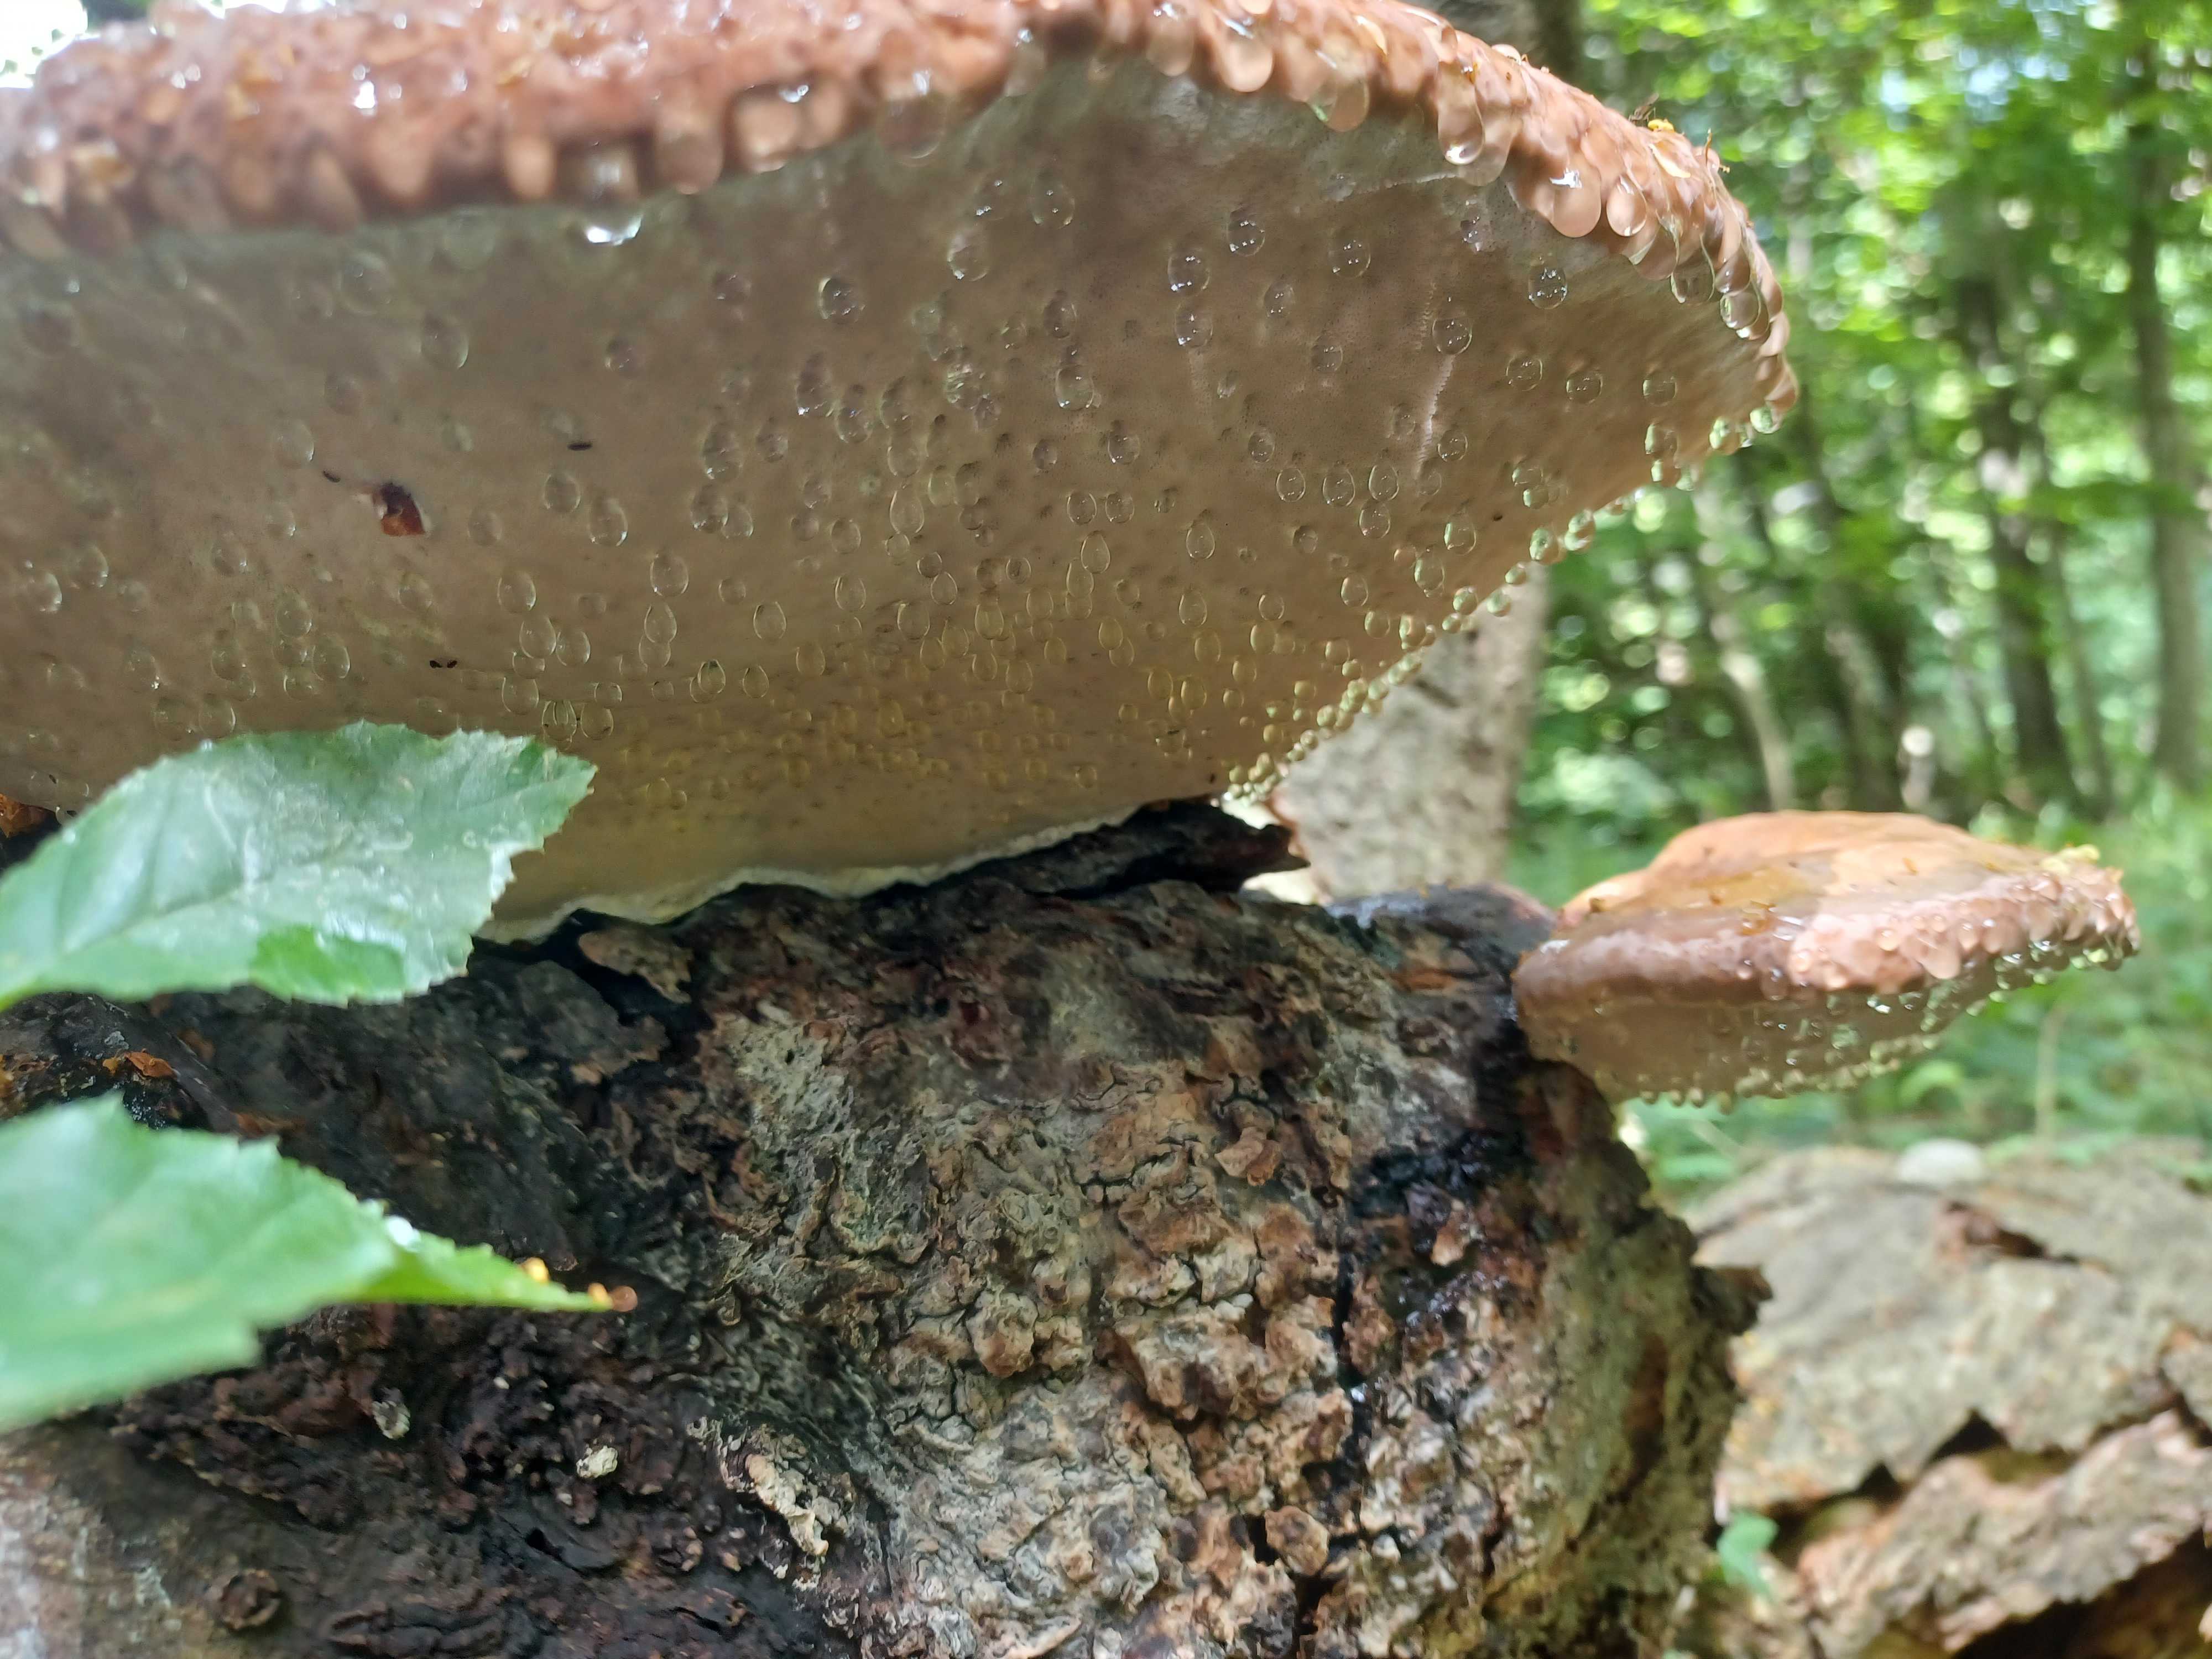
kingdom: Fungi
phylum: Basidiomycota
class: Agaricomycetes
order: Polyporales
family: Fomitopsidaceae
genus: Fomitopsis
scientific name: Fomitopsis pinicola
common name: randbæltet hovporesvamp
